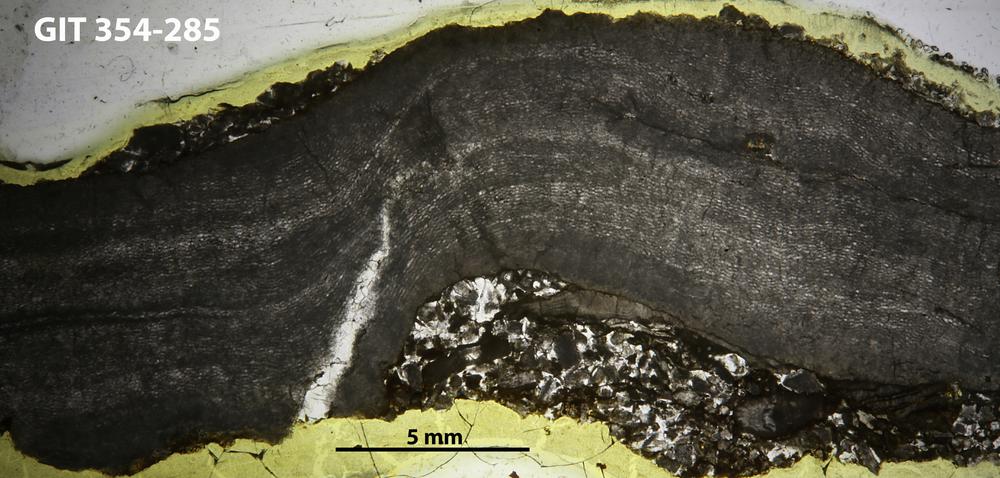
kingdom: Animalia
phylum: Porifera
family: Clathrodictyidae
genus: Clathrodictyon
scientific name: Clathrodictyon demissum
